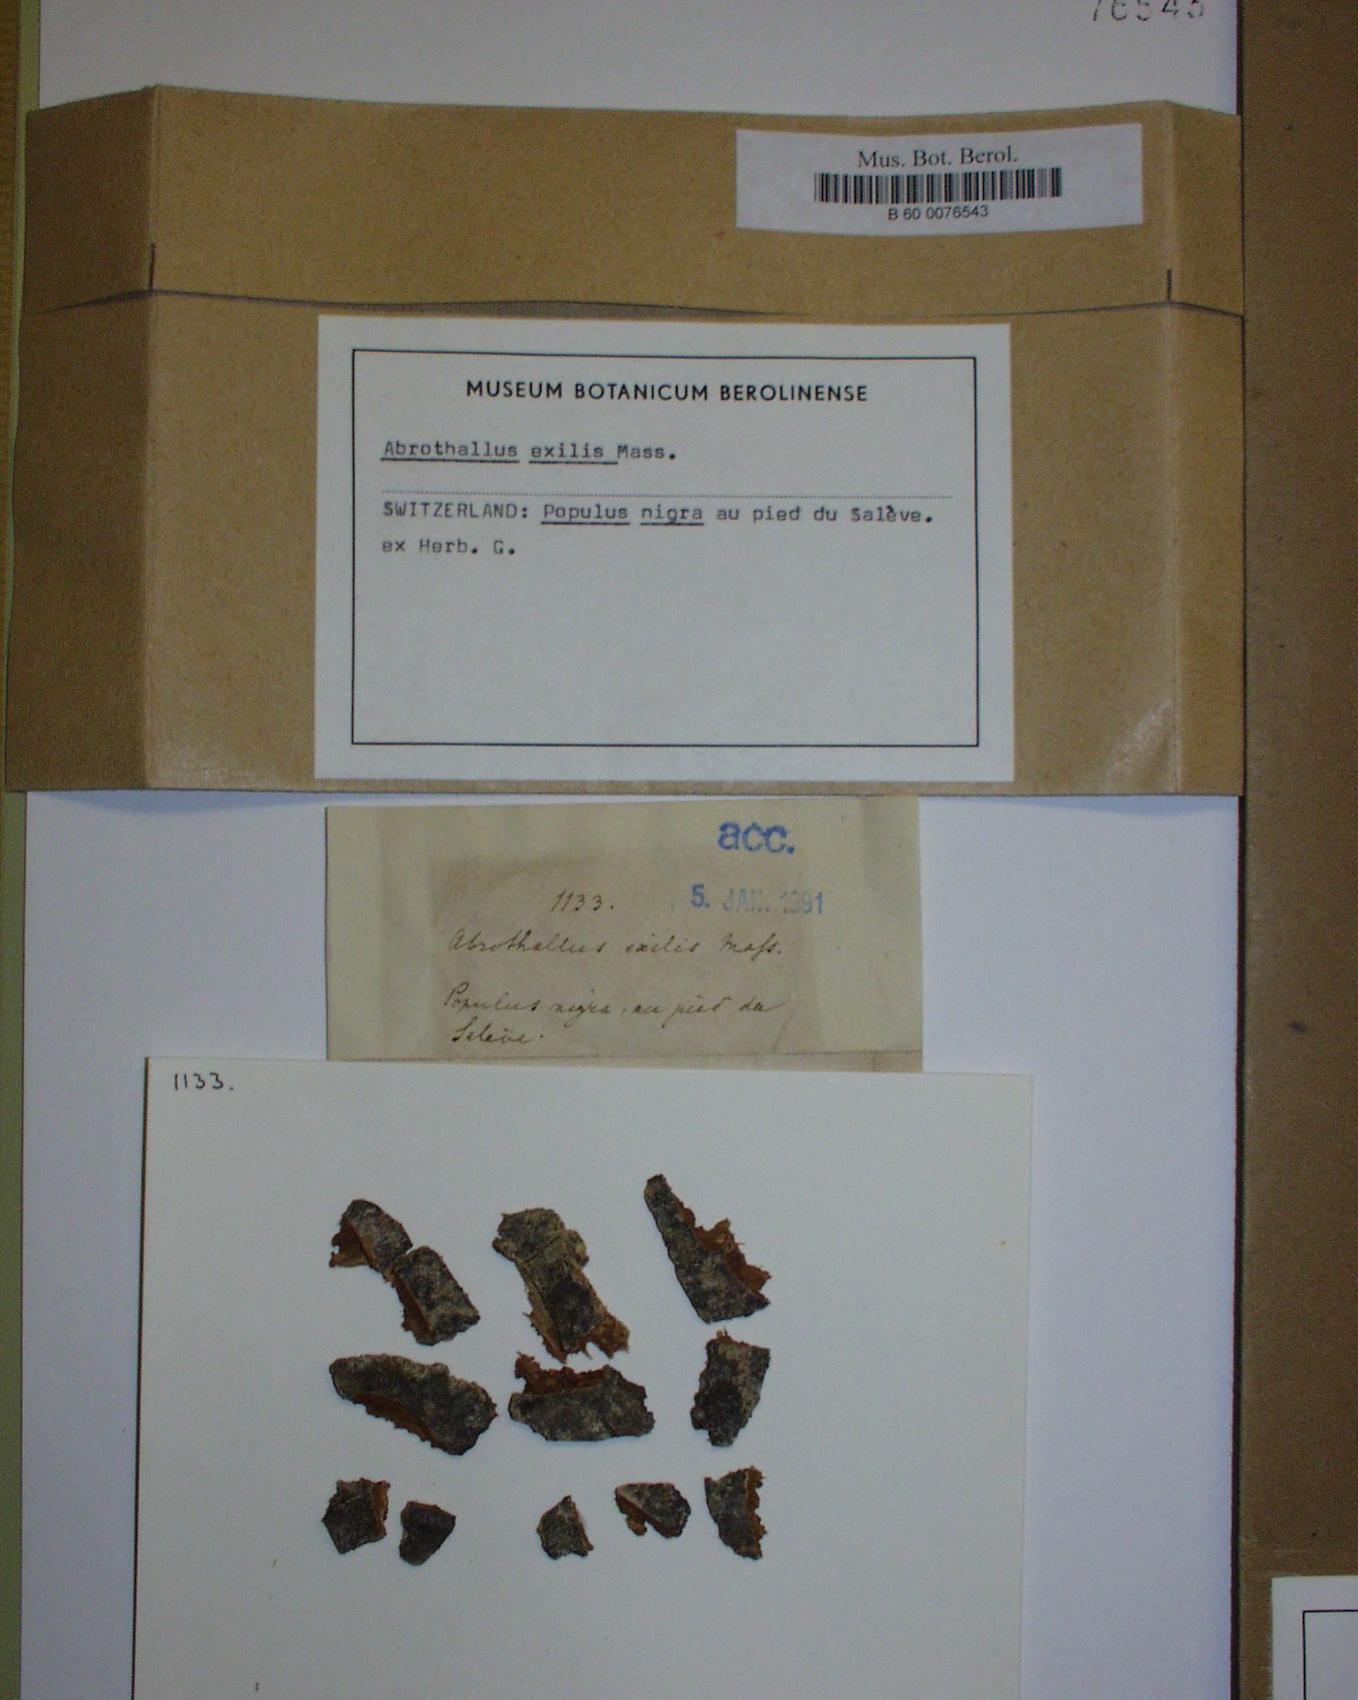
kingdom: Fungi
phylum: Ascomycota
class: Arthoniomycetes
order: Arthoniales
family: Arthoniaceae
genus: Arthonia
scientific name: Arthonia exilis
